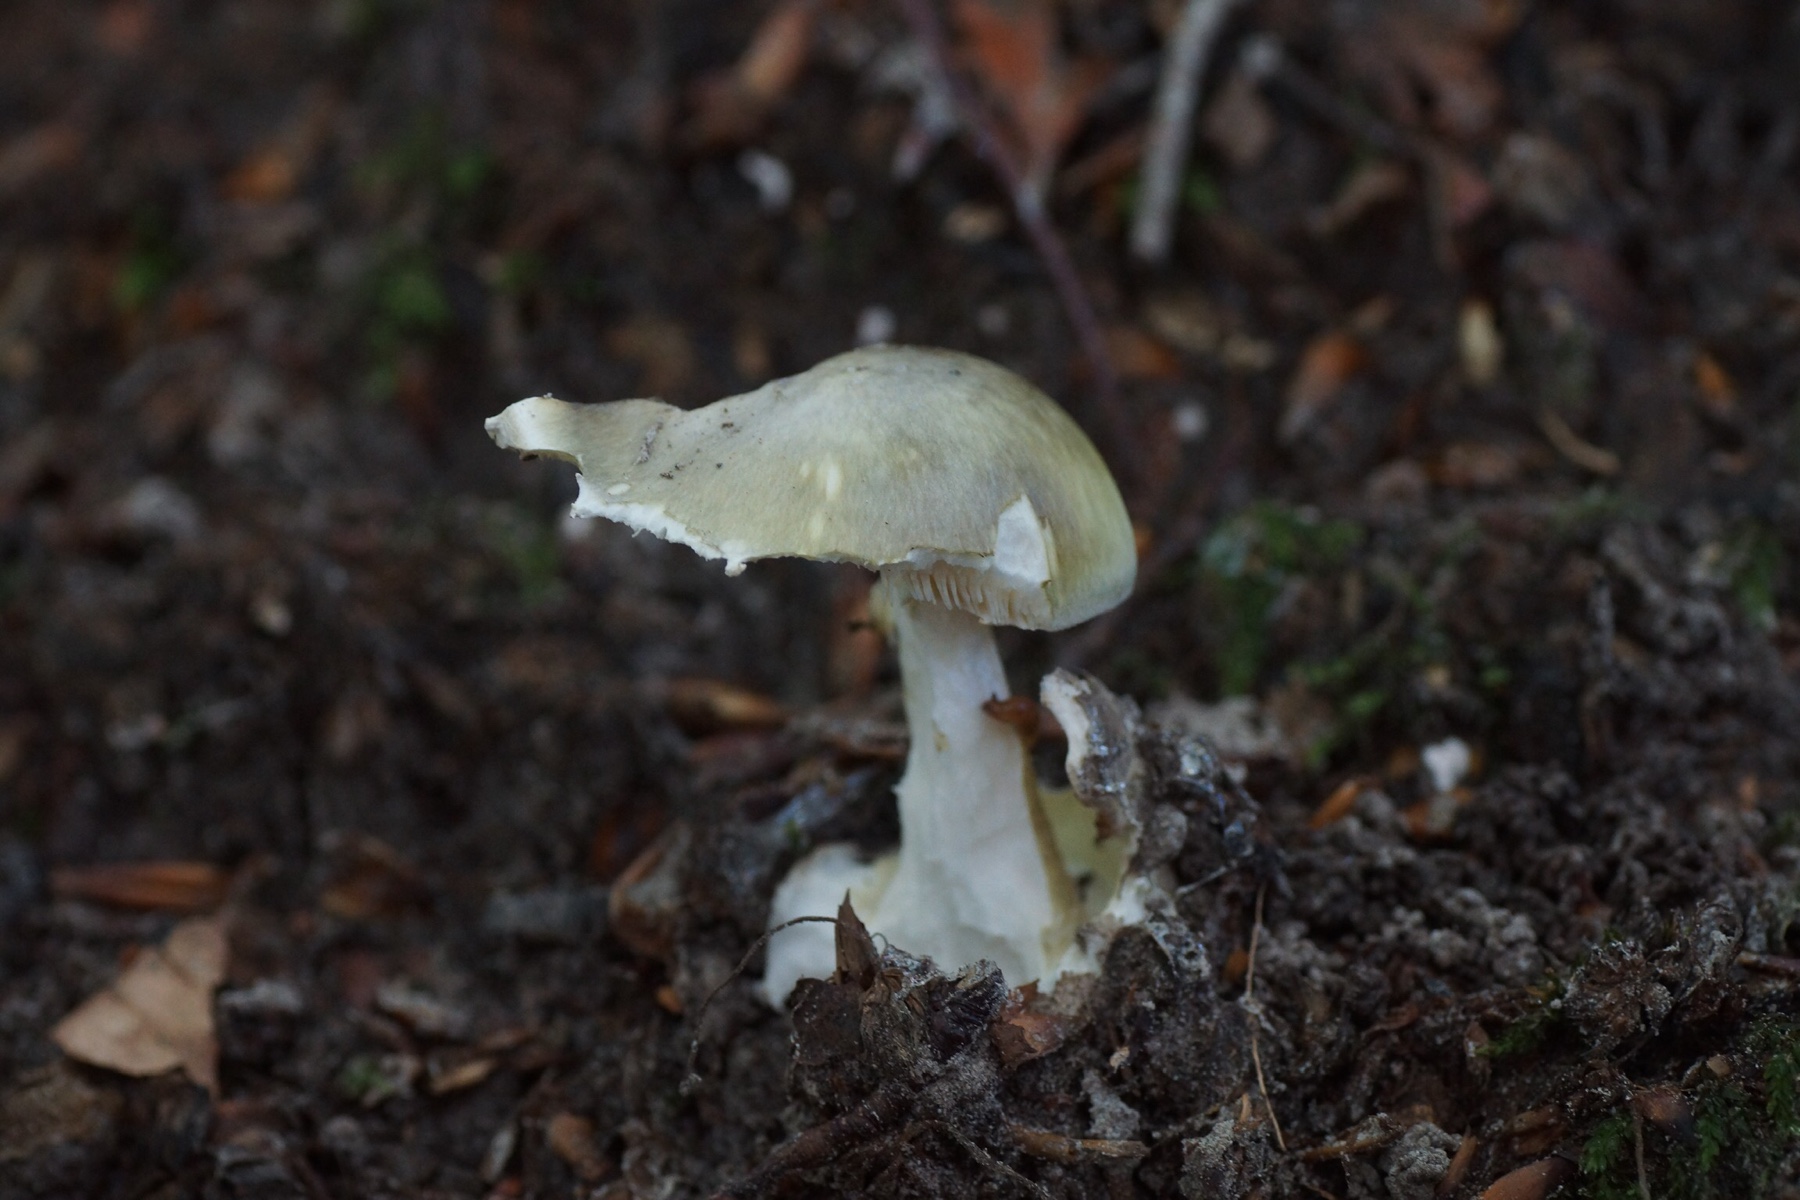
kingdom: Fungi
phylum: Basidiomycota
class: Agaricomycetes
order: Agaricales
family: Amanitaceae
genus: Amanita
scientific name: Amanita phalloides
